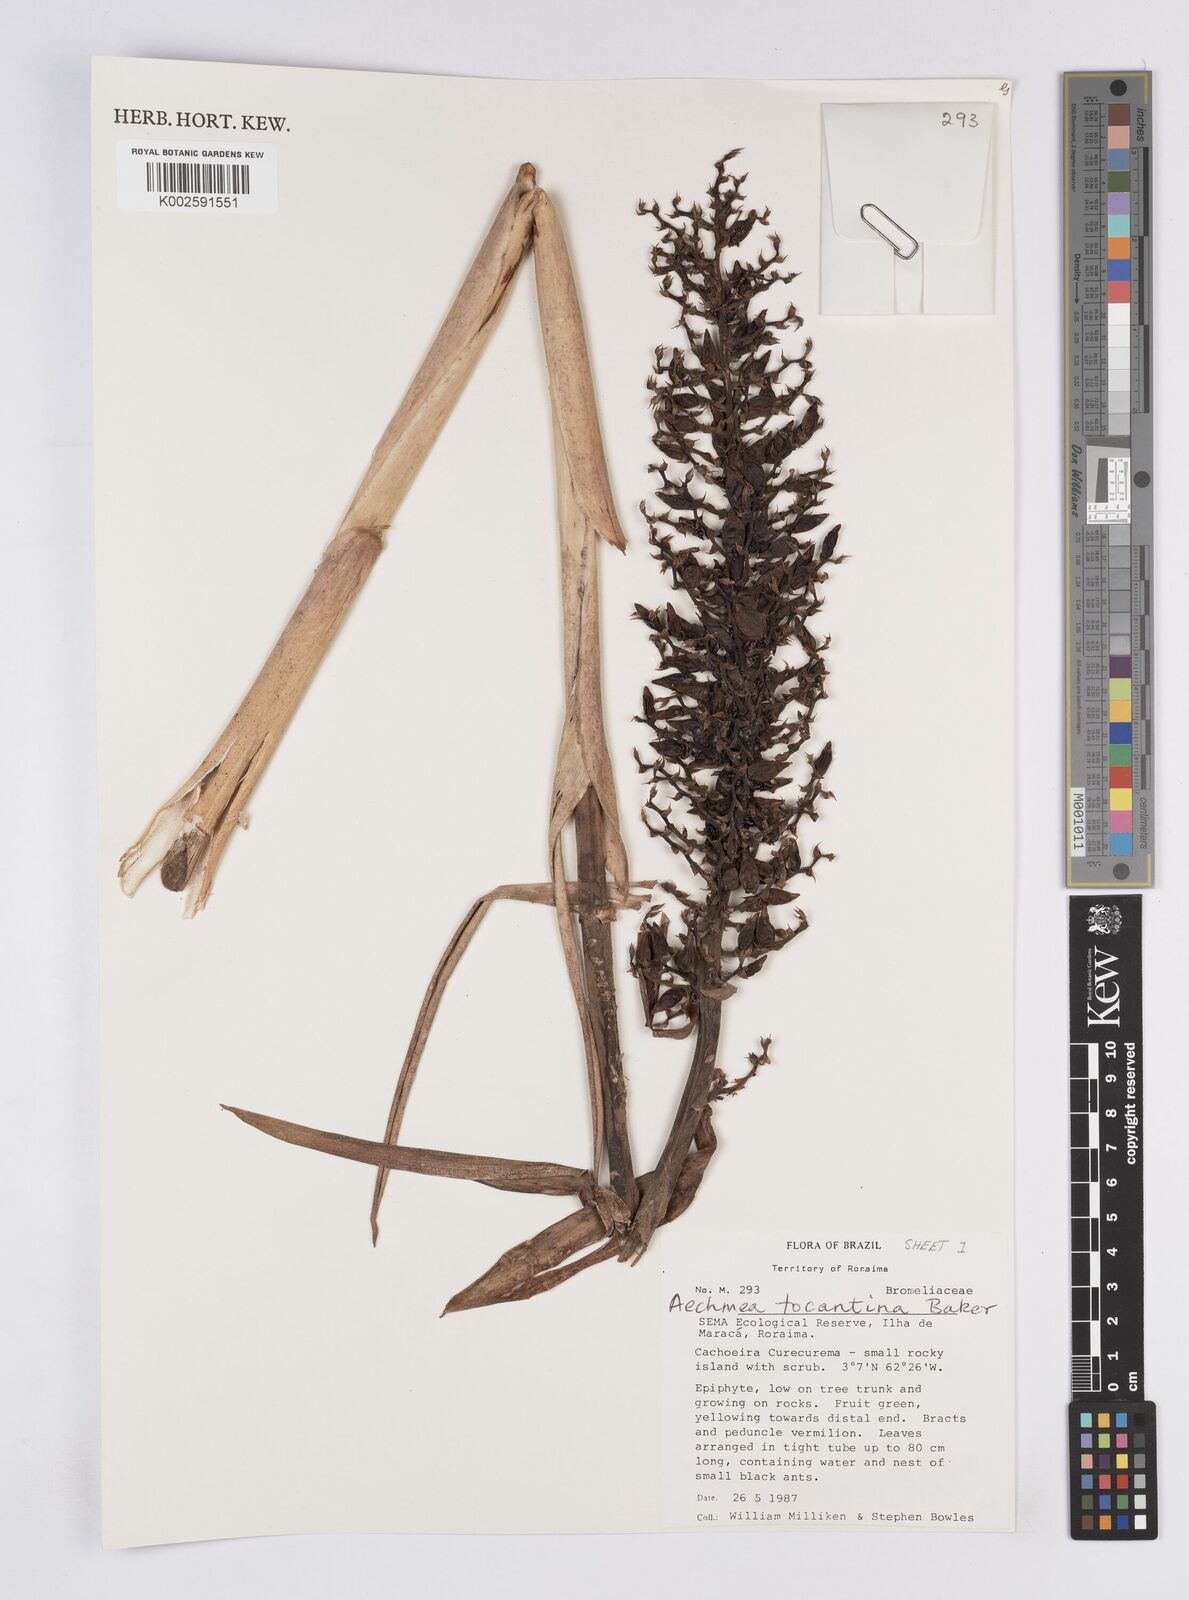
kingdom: Plantae
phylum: Tracheophyta
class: Liliopsida
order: Poales
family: Bromeliaceae
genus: Aechmea
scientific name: Aechmea tocantina
